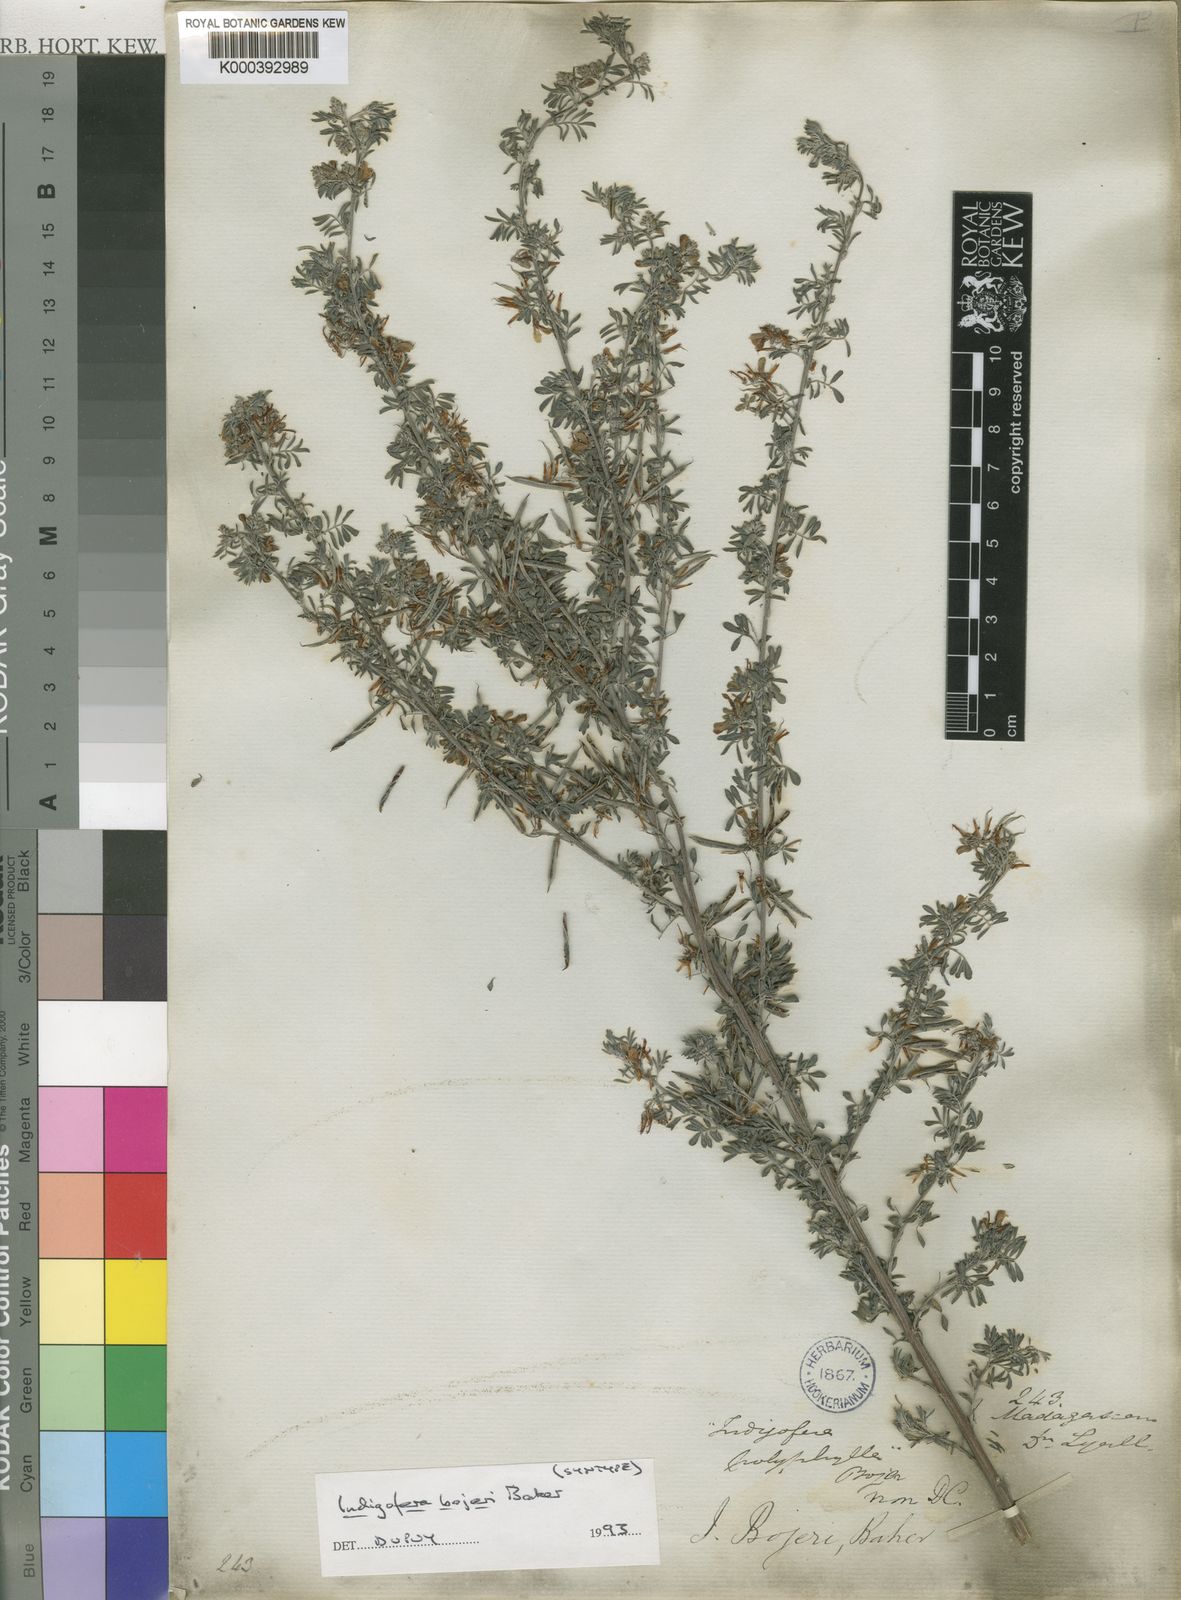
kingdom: Plantae
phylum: Tracheophyta
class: Magnoliopsida
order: Fabales
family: Fabaceae
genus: Indigofera
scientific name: Indigofera bojeri
